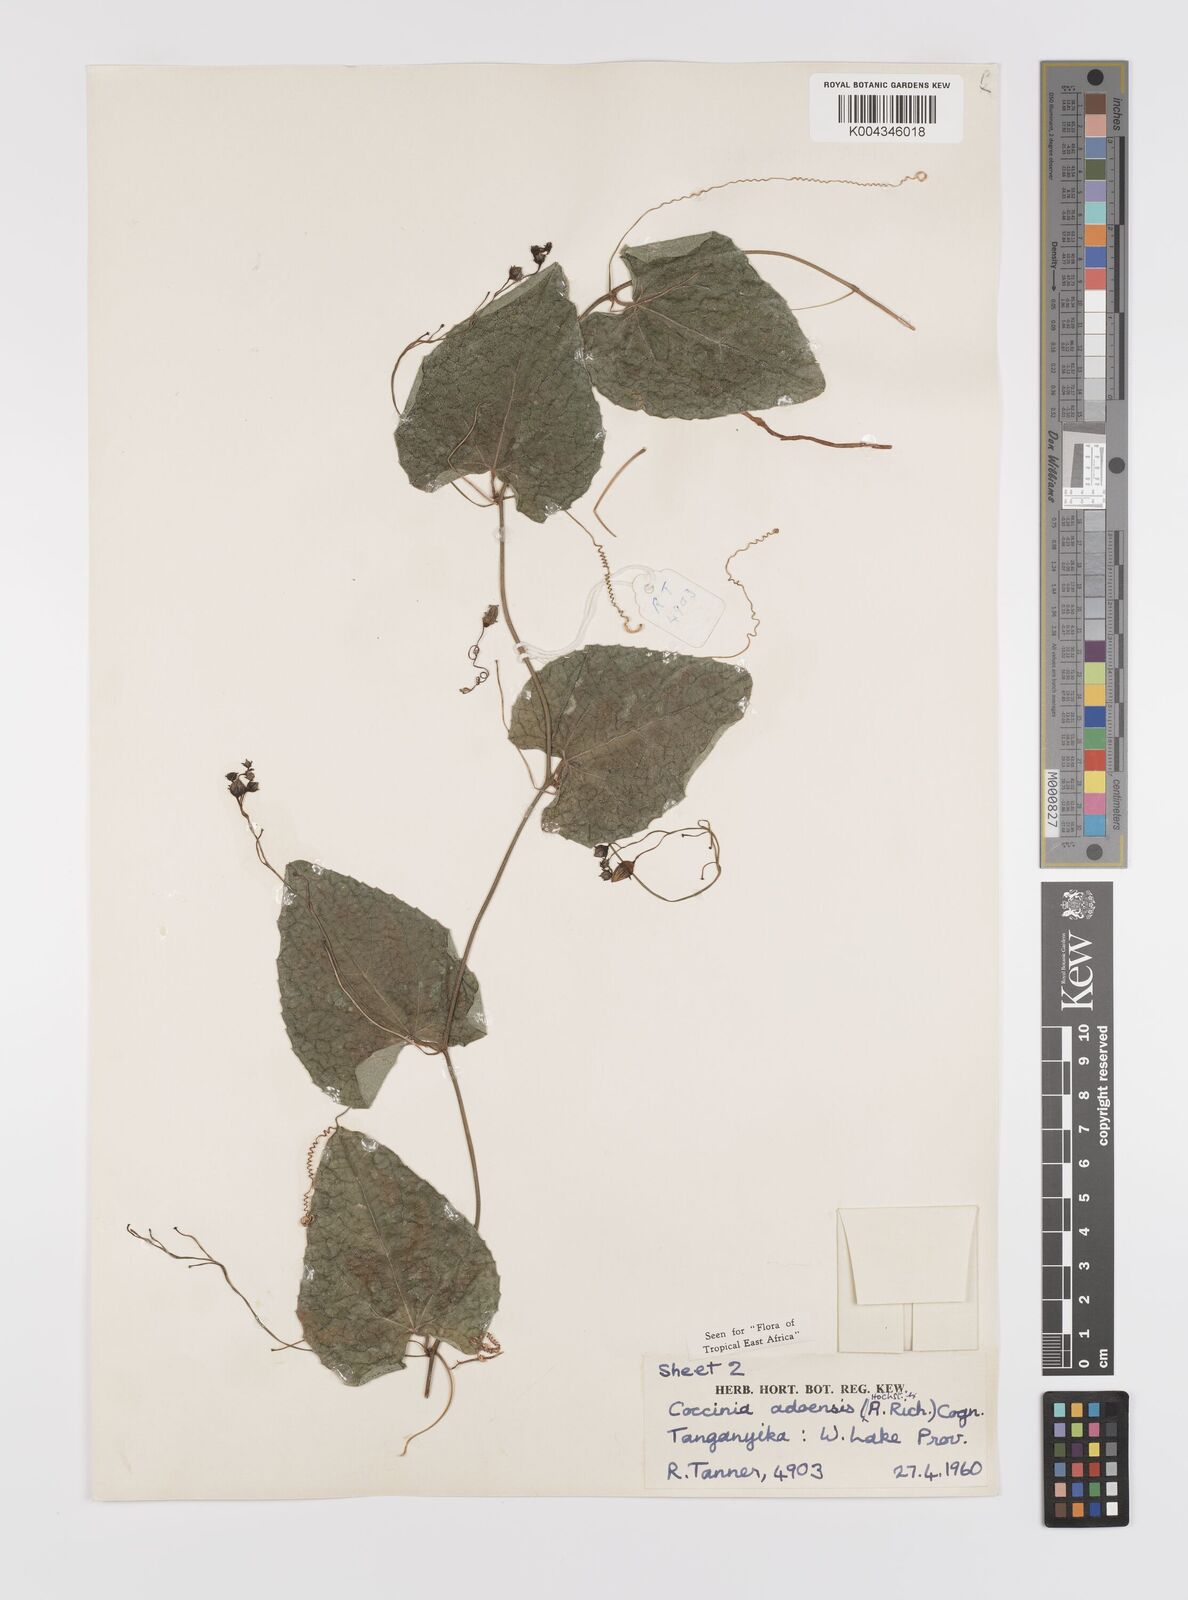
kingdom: Plantae
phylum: Tracheophyta
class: Magnoliopsida
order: Cucurbitales
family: Cucurbitaceae
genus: Coccinia
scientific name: Coccinia adoensis
